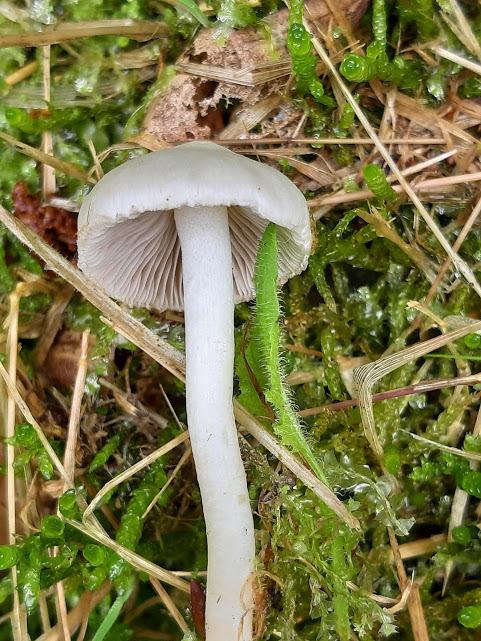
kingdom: Fungi
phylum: Basidiomycota
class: Agaricomycetes
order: Agaricales
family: Inocybaceae
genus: Inocybe
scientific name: Inocybe
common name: almindelig trævlhat
